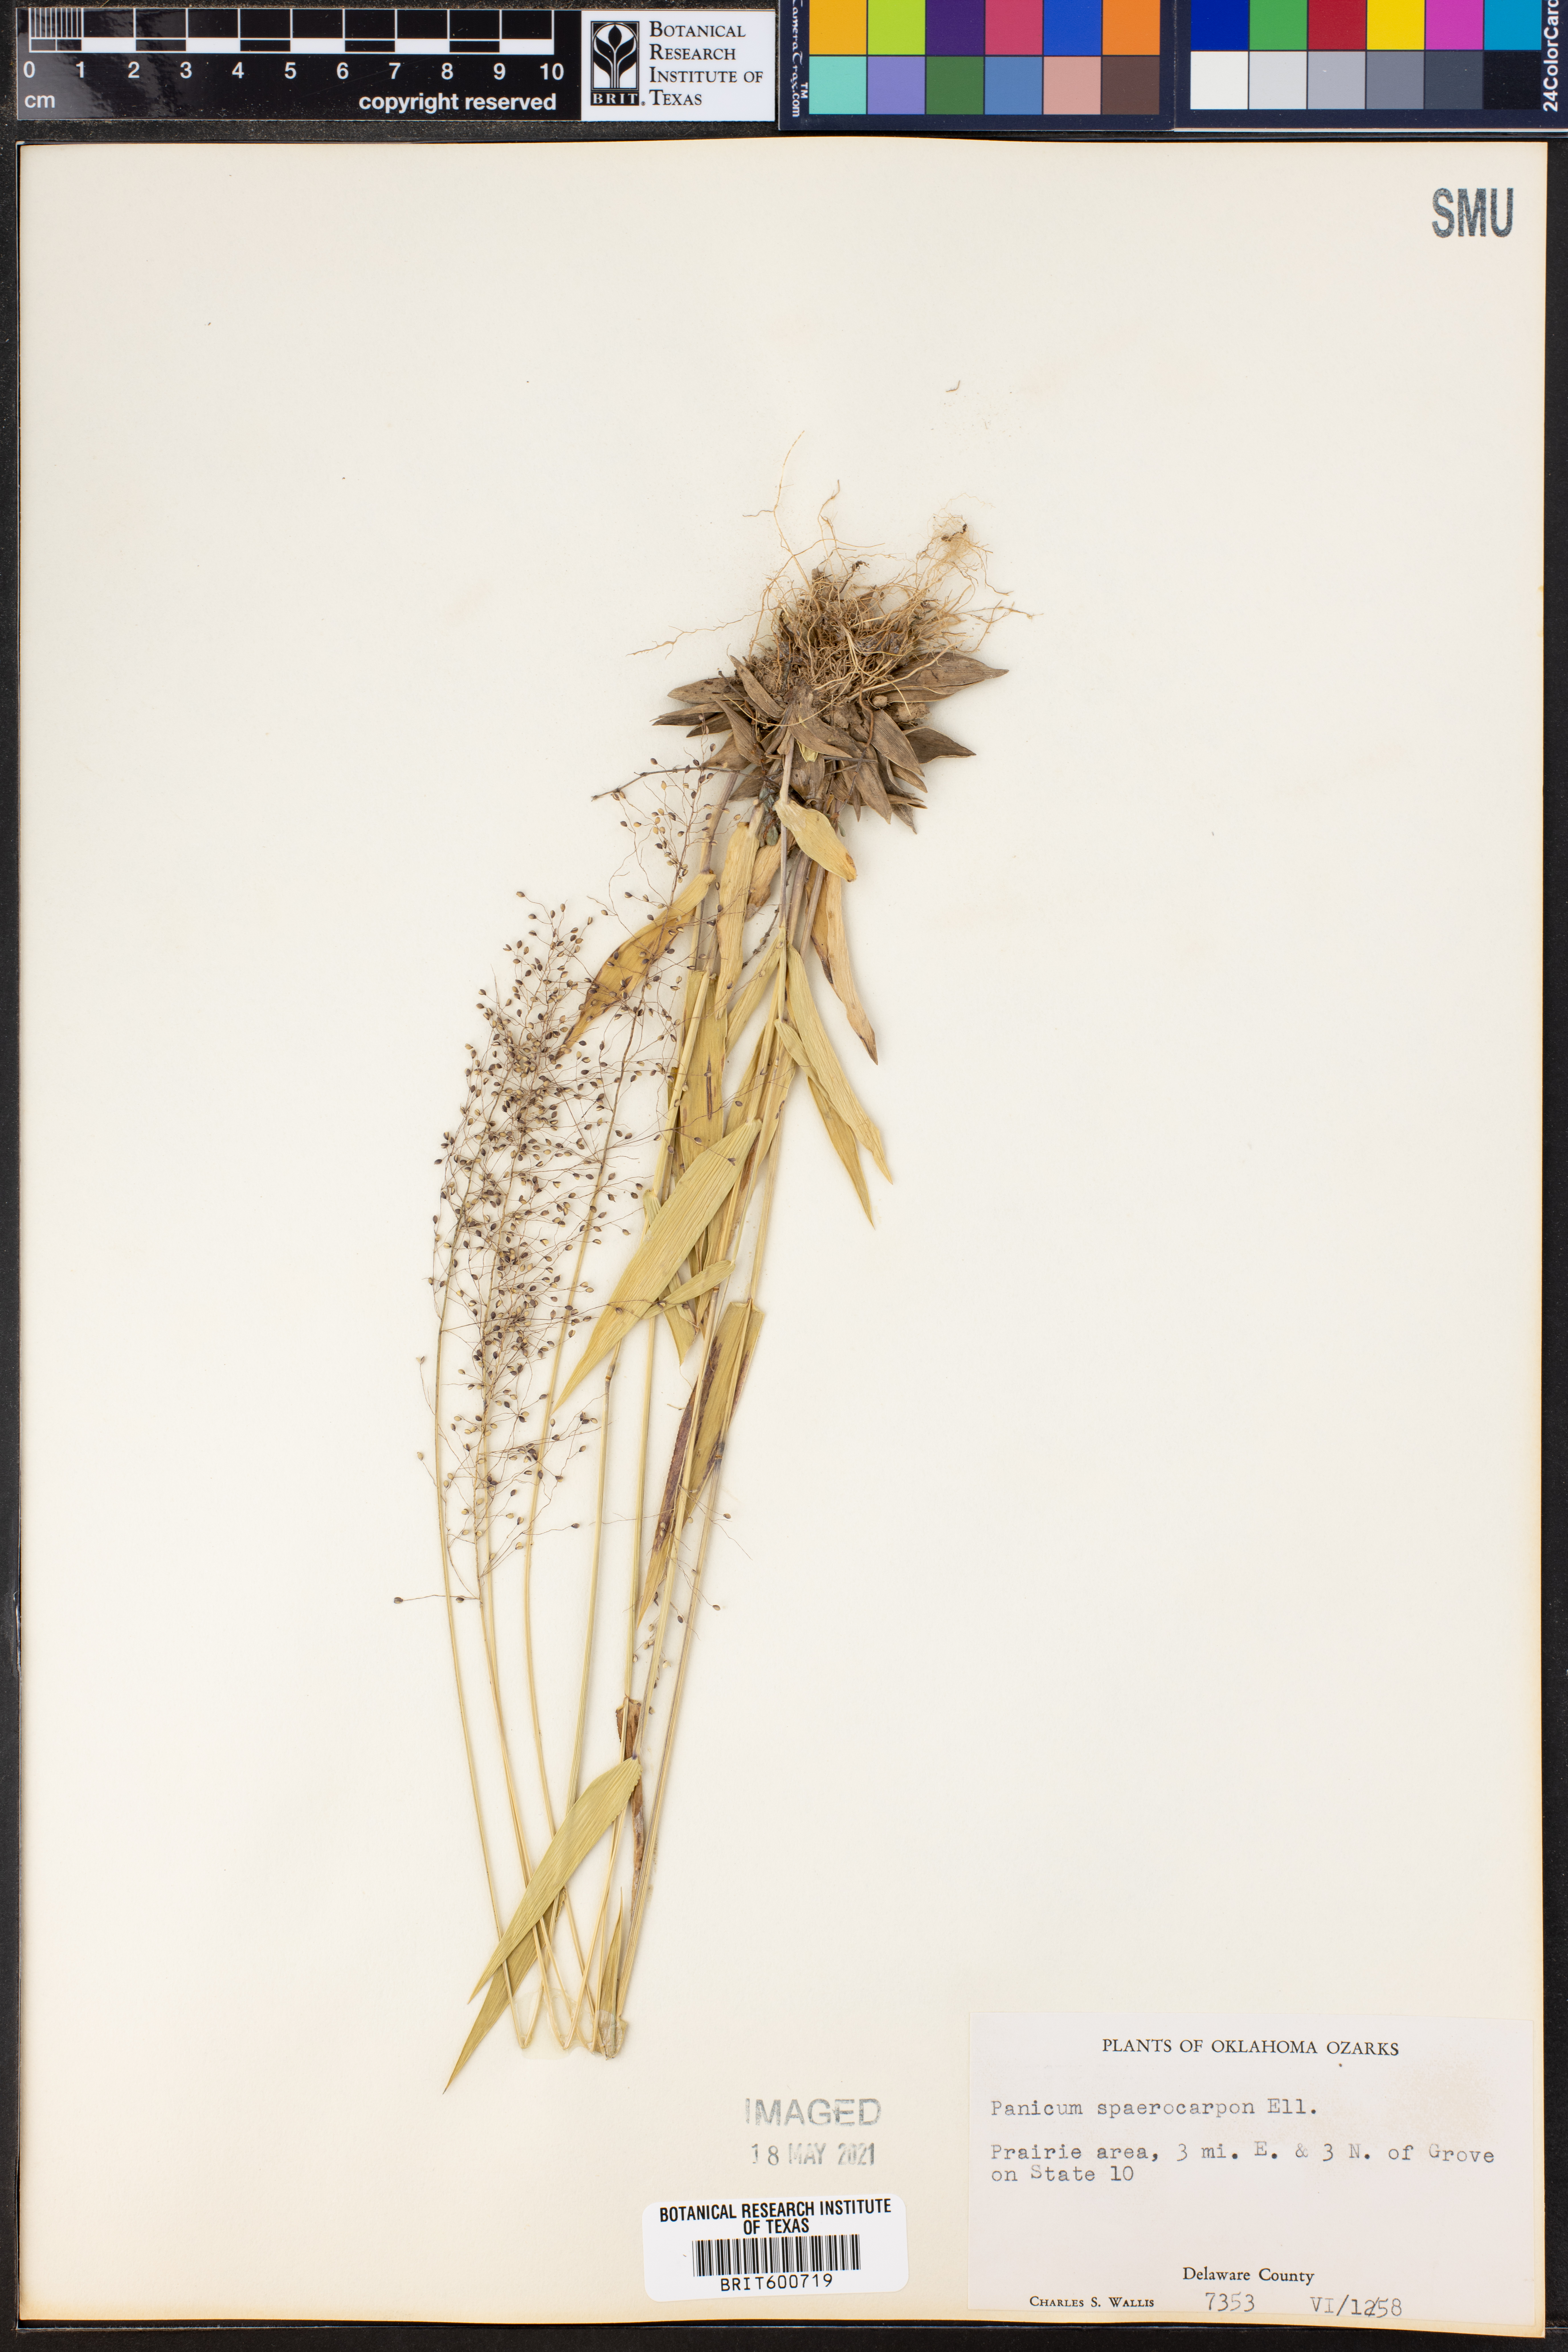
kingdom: Plantae
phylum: Tracheophyta
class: Liliopsida
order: Poales
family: Poaceae
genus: Dichanthelium
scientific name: Dichanthelium sphaerocarpon
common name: Round-fruited panicgrass
